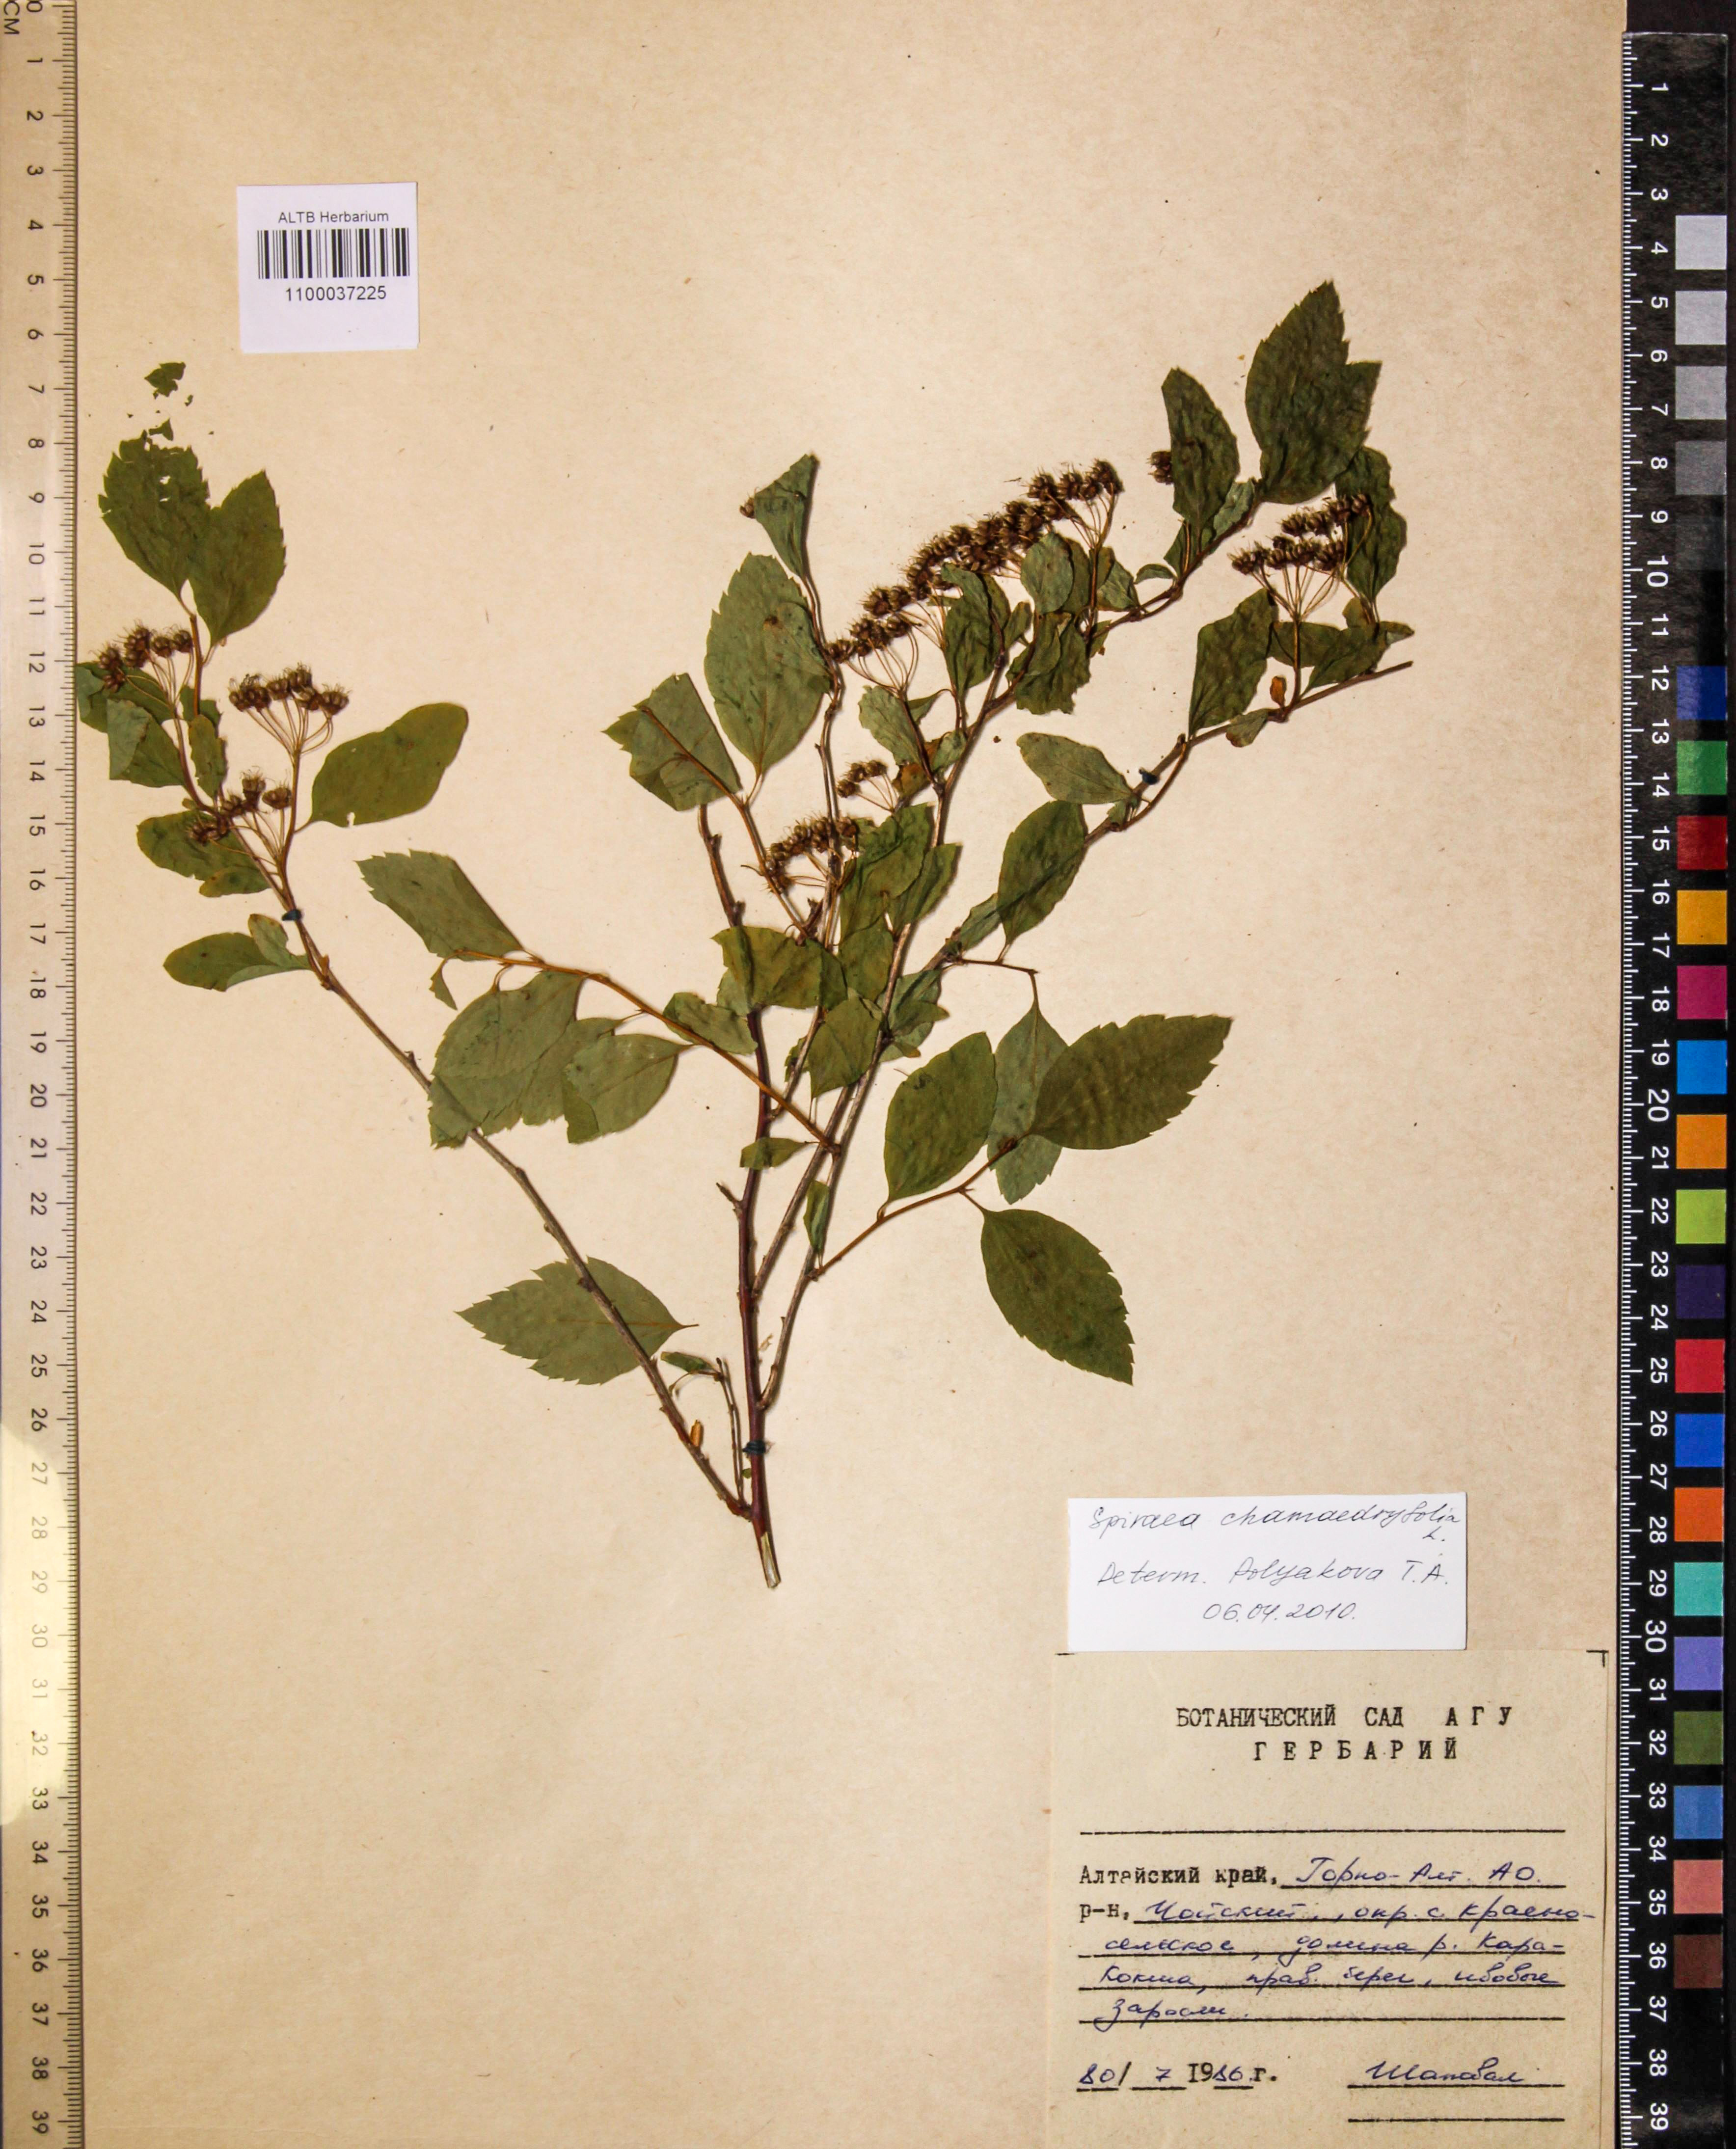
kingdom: Plantae
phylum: Tracheophyta
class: Magnoliopsida
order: Rosales
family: Rosaceae
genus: Spiraea
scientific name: Spiraea chamaedryfolia
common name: Elm-leaved spiraea
